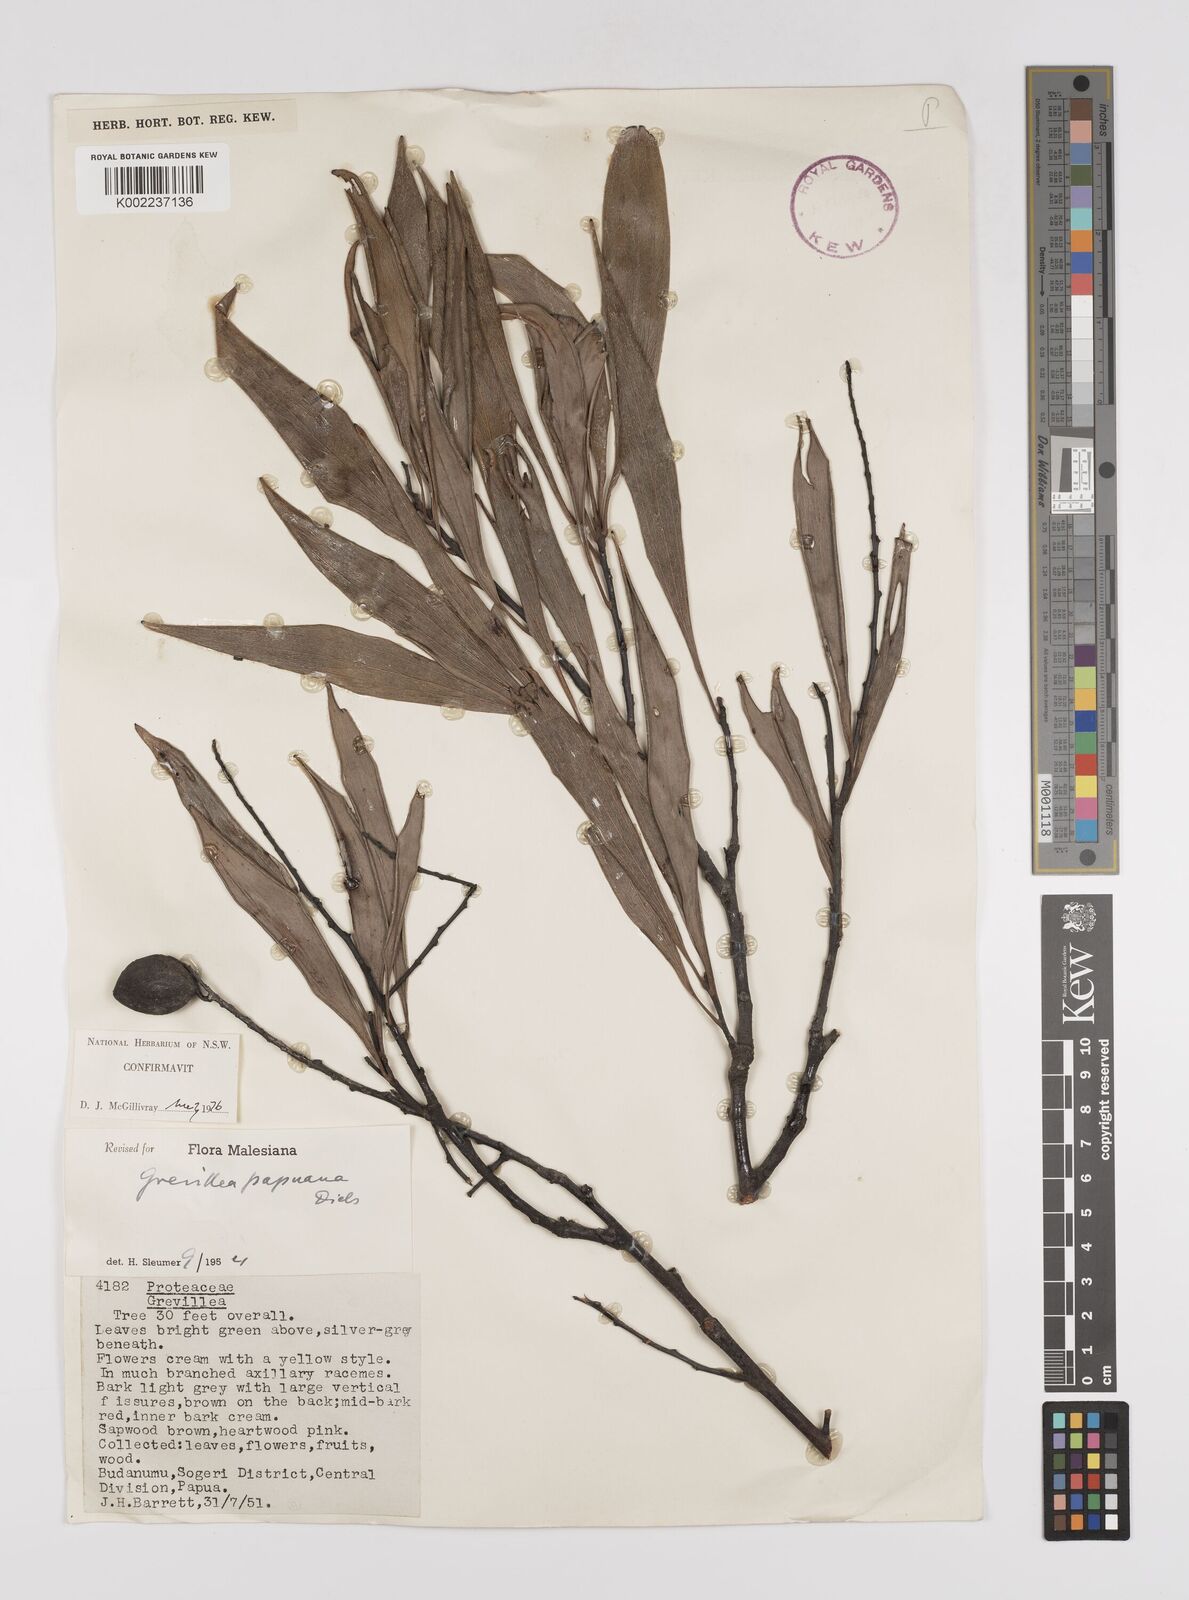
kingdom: Plantae
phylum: Tracheophyta
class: Magnoliopsida
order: Proteales
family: Proteaceae
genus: Grevillea
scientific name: Grevillea papuana
